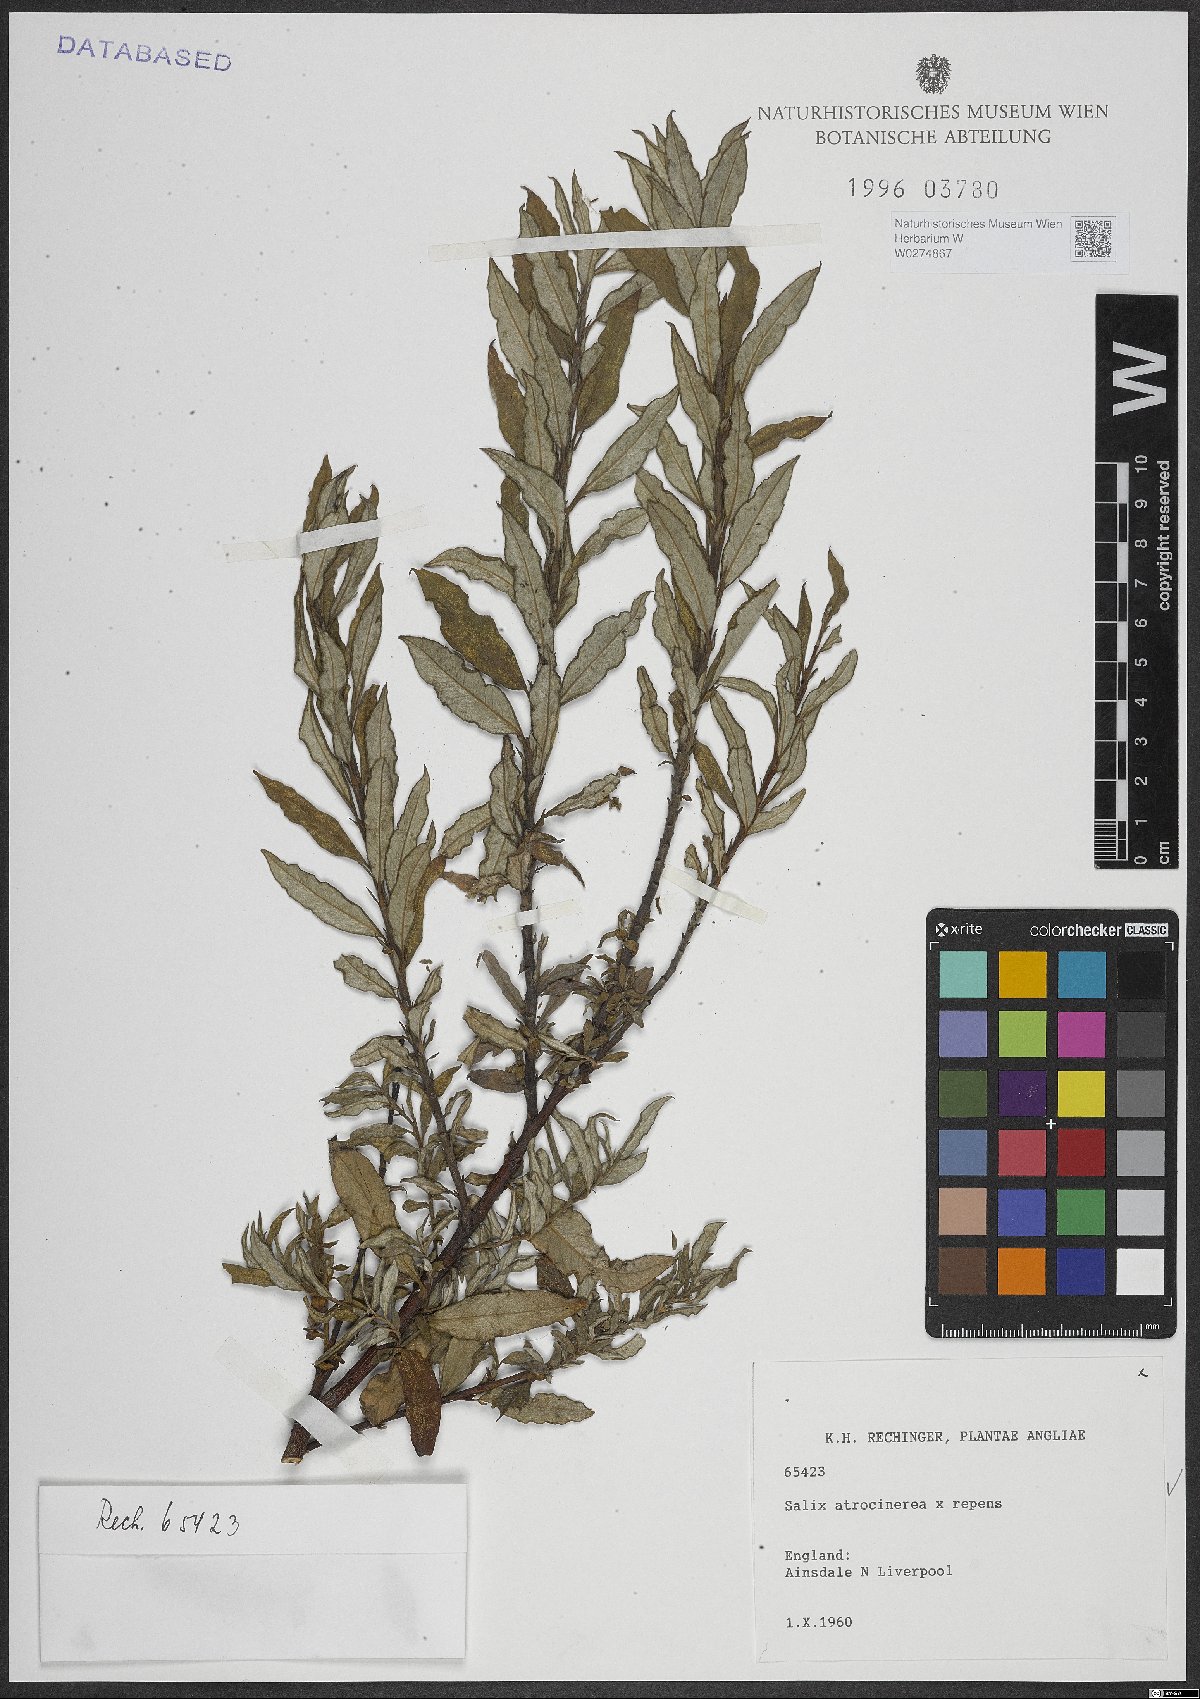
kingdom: Plantae
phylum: Tracheophyta
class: Magnoliopsida
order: Malpighiales
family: Salicaceae
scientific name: Salicaceae
